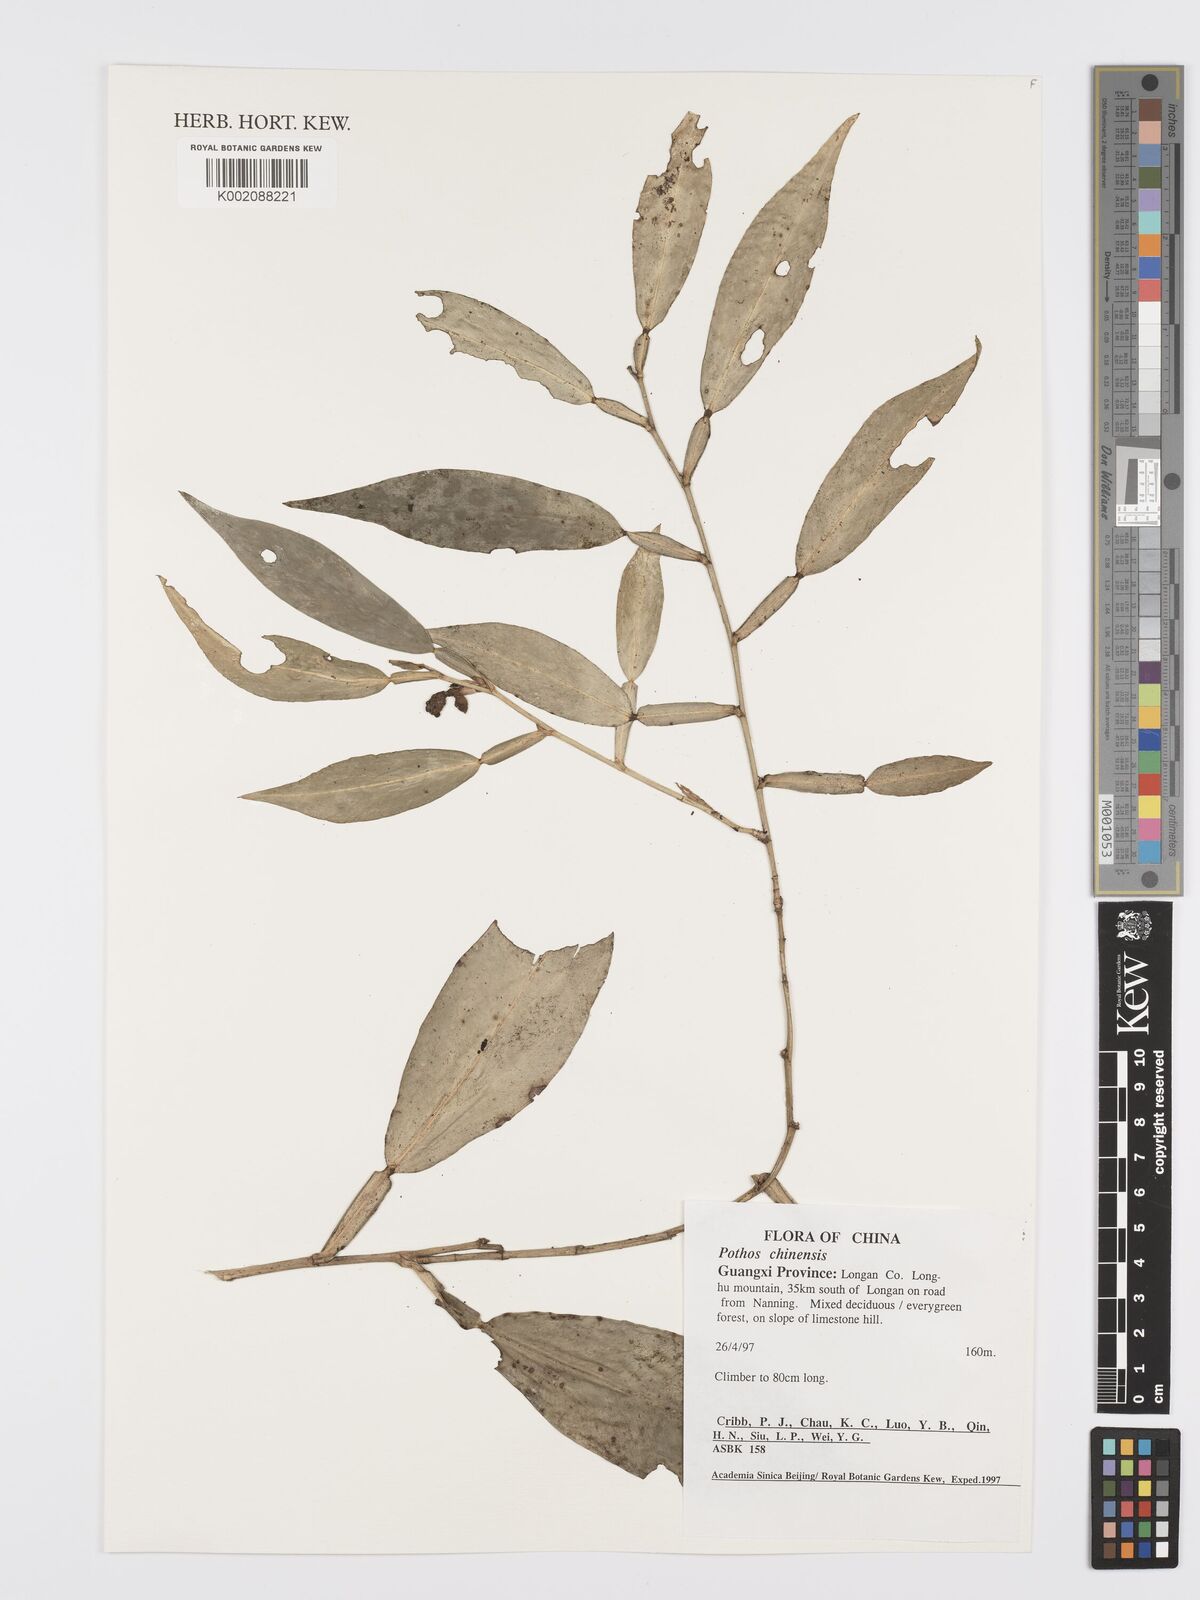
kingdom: Plantae
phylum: Tracheophyta
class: Liliopsida
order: Alismatales
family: Araceae
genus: Pothos
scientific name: Pothos chinensis
